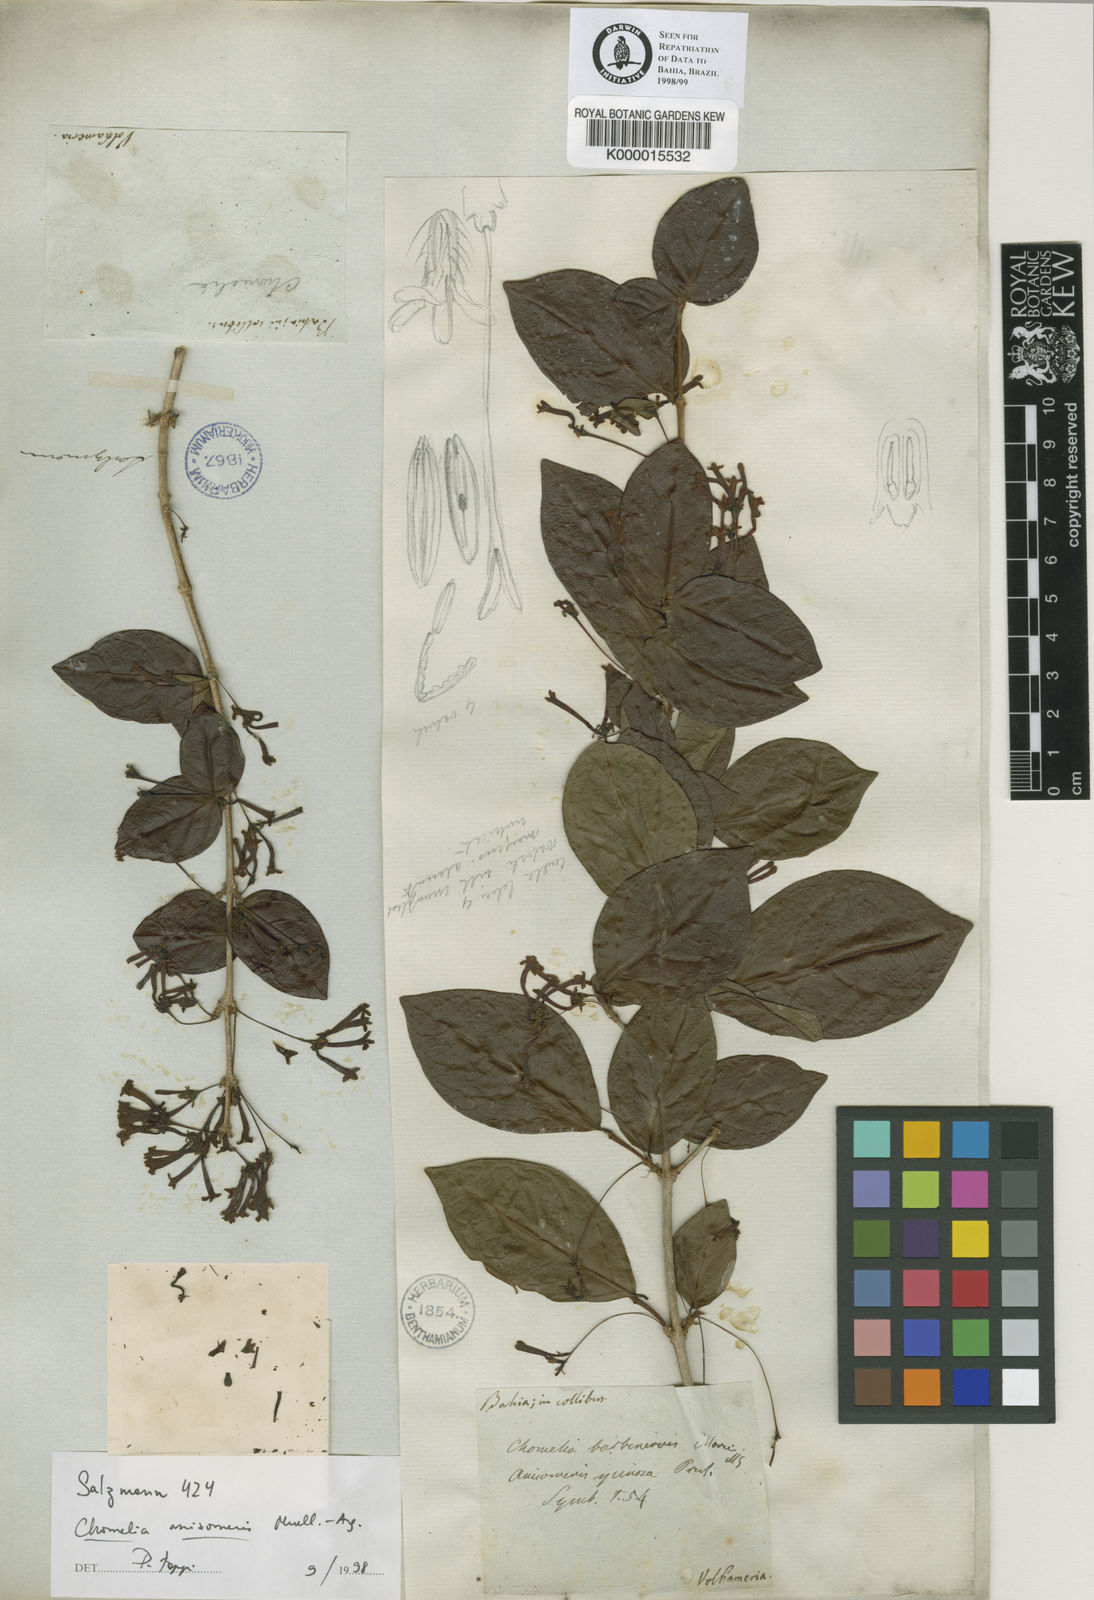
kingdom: Plantae
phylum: Tracheophyta
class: Magnoliopsida
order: Gentianales
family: Rubiaceae
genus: Chomelia
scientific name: Chomelia anisomeris
